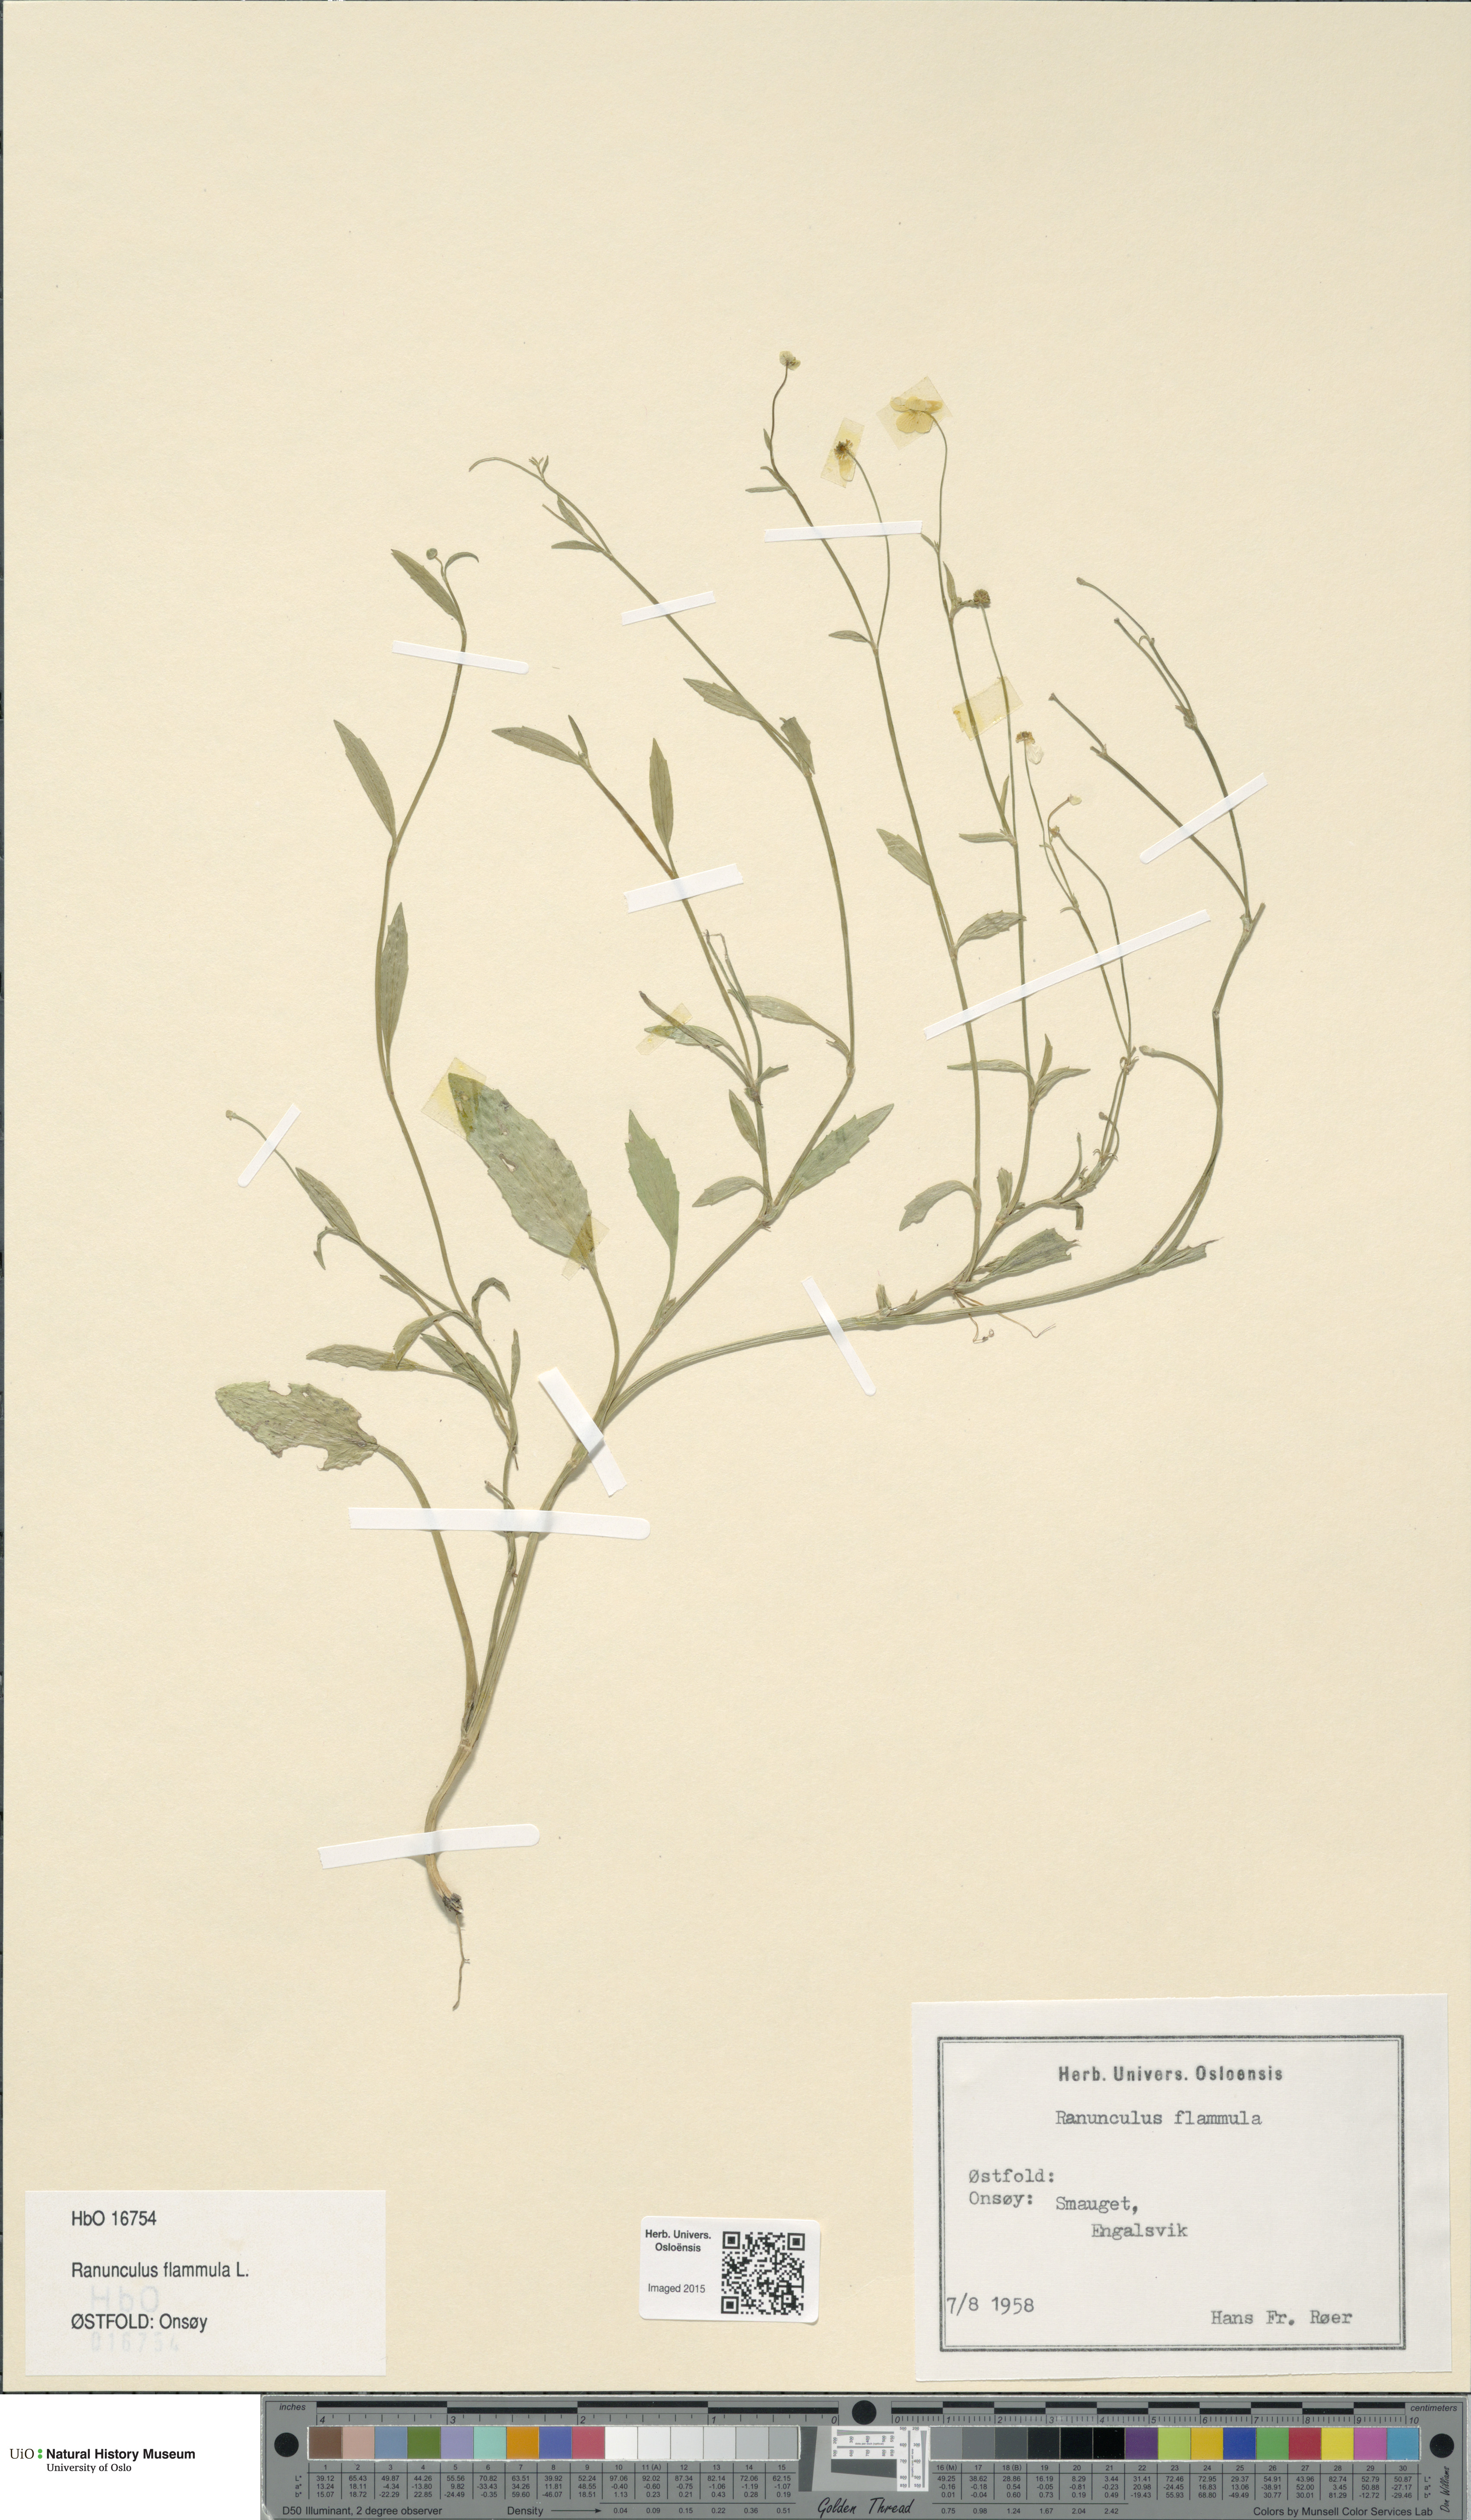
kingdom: Plantae
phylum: Tracheophyta
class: Magnoliopsida
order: Ranunculales
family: Ranunculaceae
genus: Ranunculus
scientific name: Ranunculus flammula
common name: Lesser spearwort
